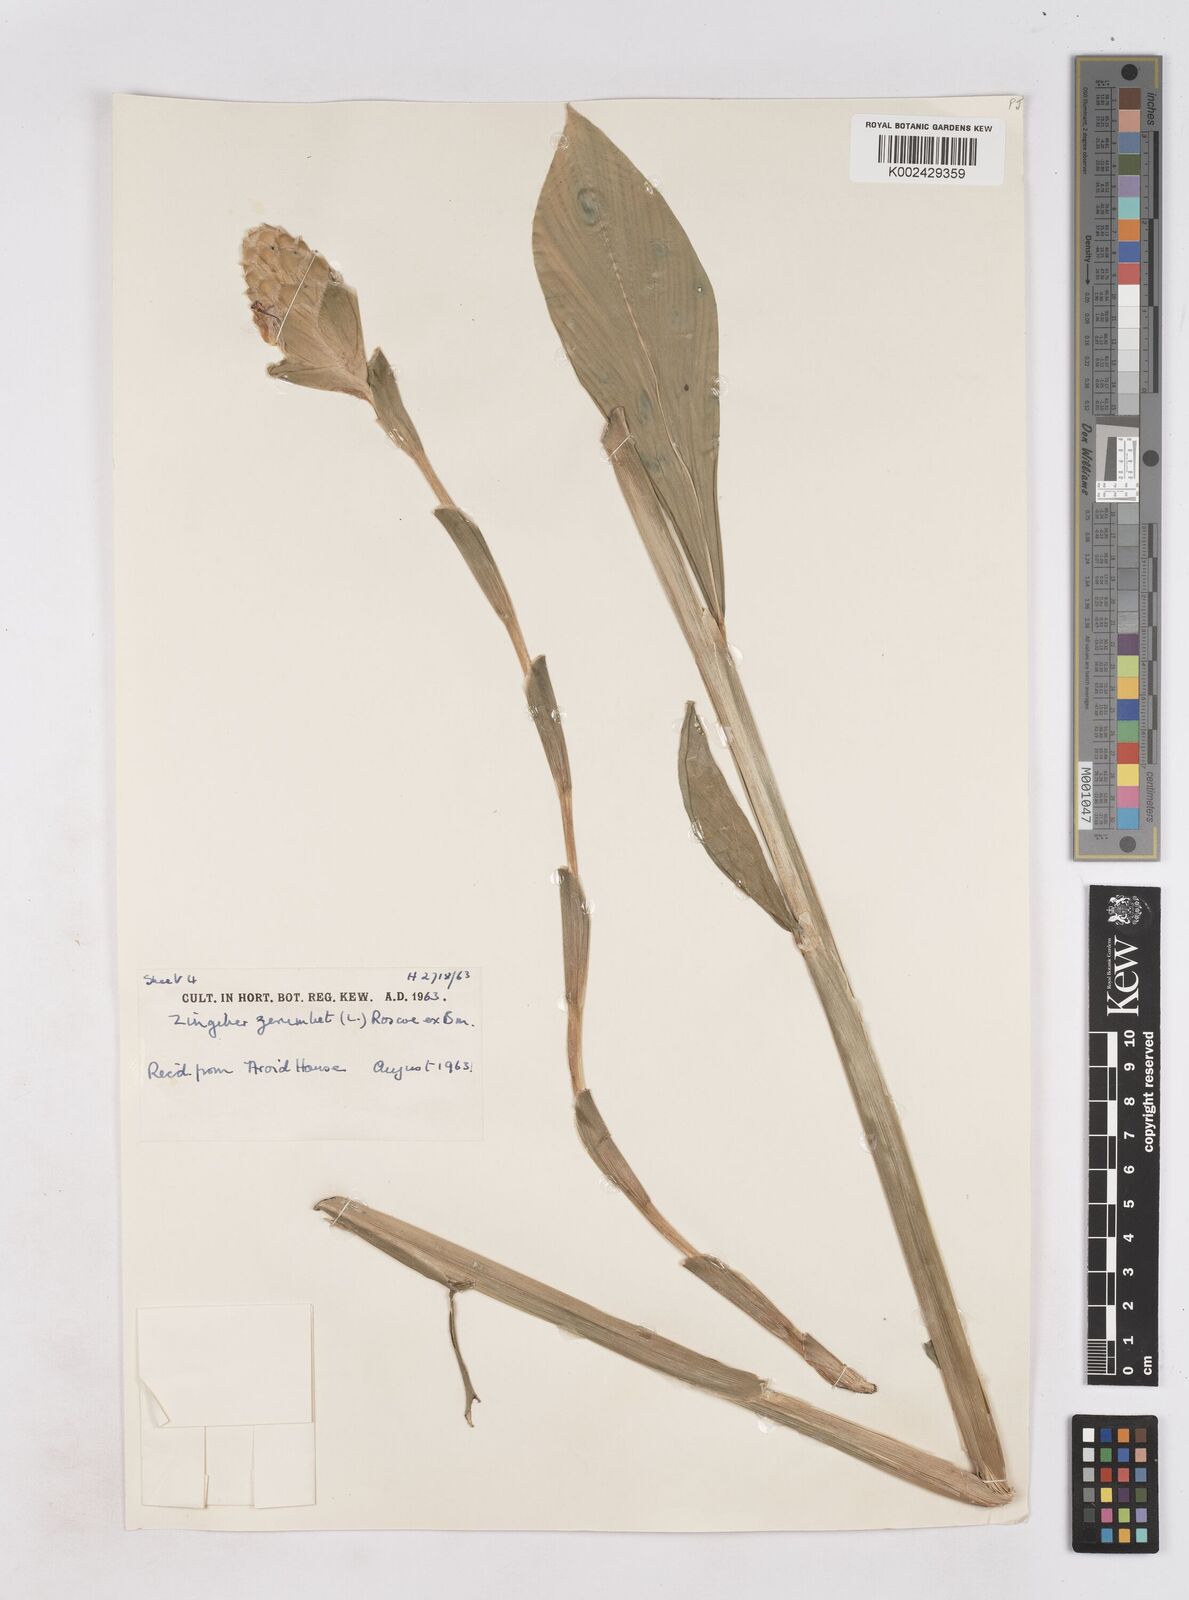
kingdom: Plantae
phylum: Tracheophyta
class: Liliopsida
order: Zingiberales
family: Zingiberaceae
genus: Zingiber
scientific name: Zingiber zerumbet
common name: Bitter ginger
